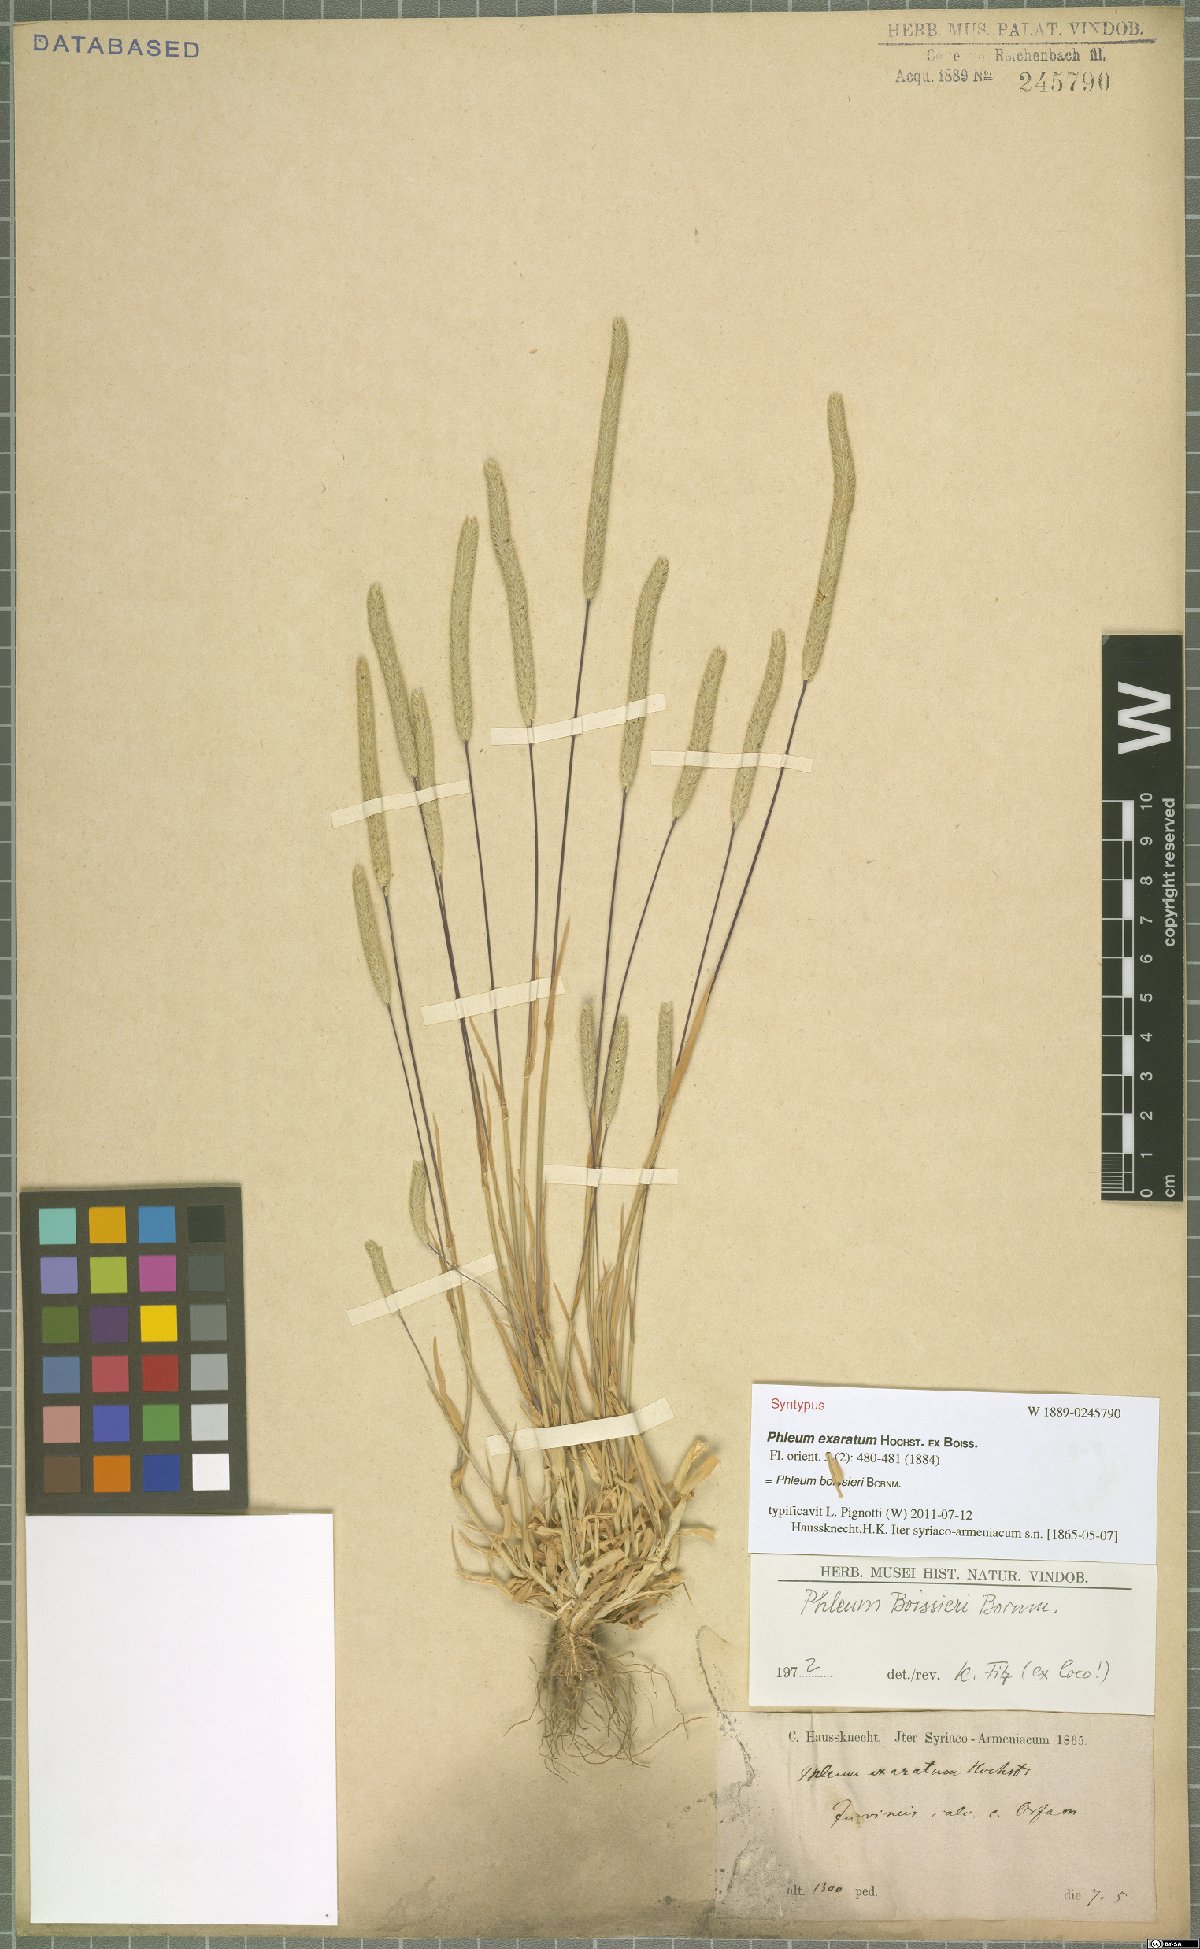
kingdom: Plantae
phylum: Tracheophyta
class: Liliopsida
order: Poales
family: Poaceae
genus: Phleum
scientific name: Phleum boissieri
